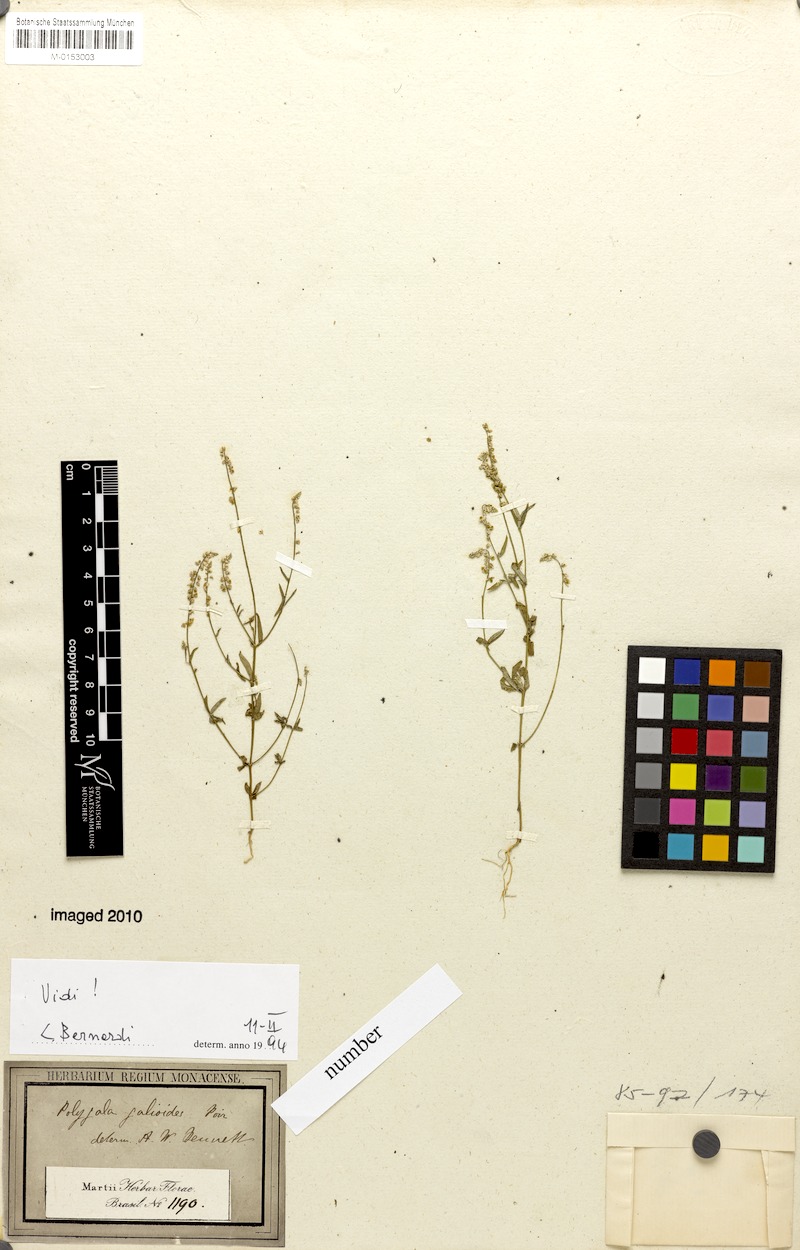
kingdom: Plantae
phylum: Tracheophyta
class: Magnoliopsida
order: Fabales
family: Polygalaceae
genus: Polygala
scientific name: Polygala galioides
